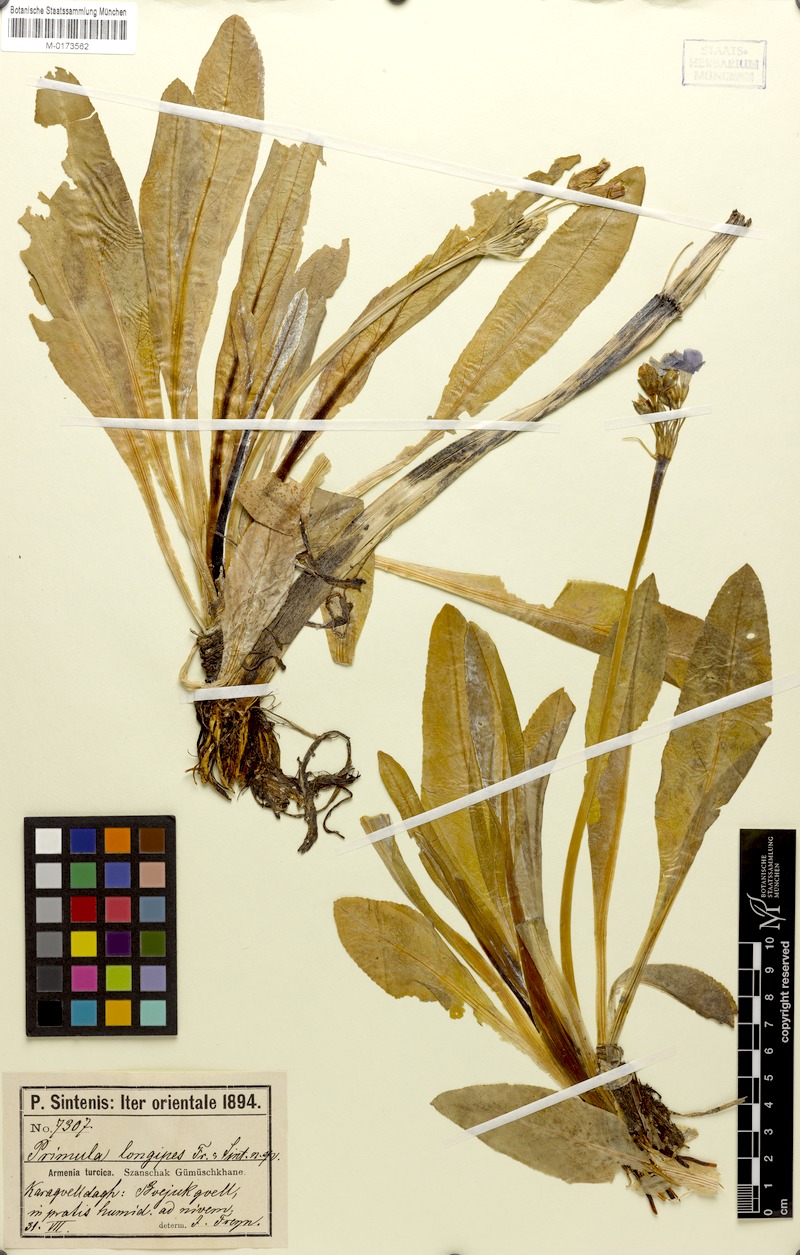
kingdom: Plantae
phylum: Tracheophyta
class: Magnoliopsida
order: Ericales
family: Primulaceae
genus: Primula
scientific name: Primula longipes
